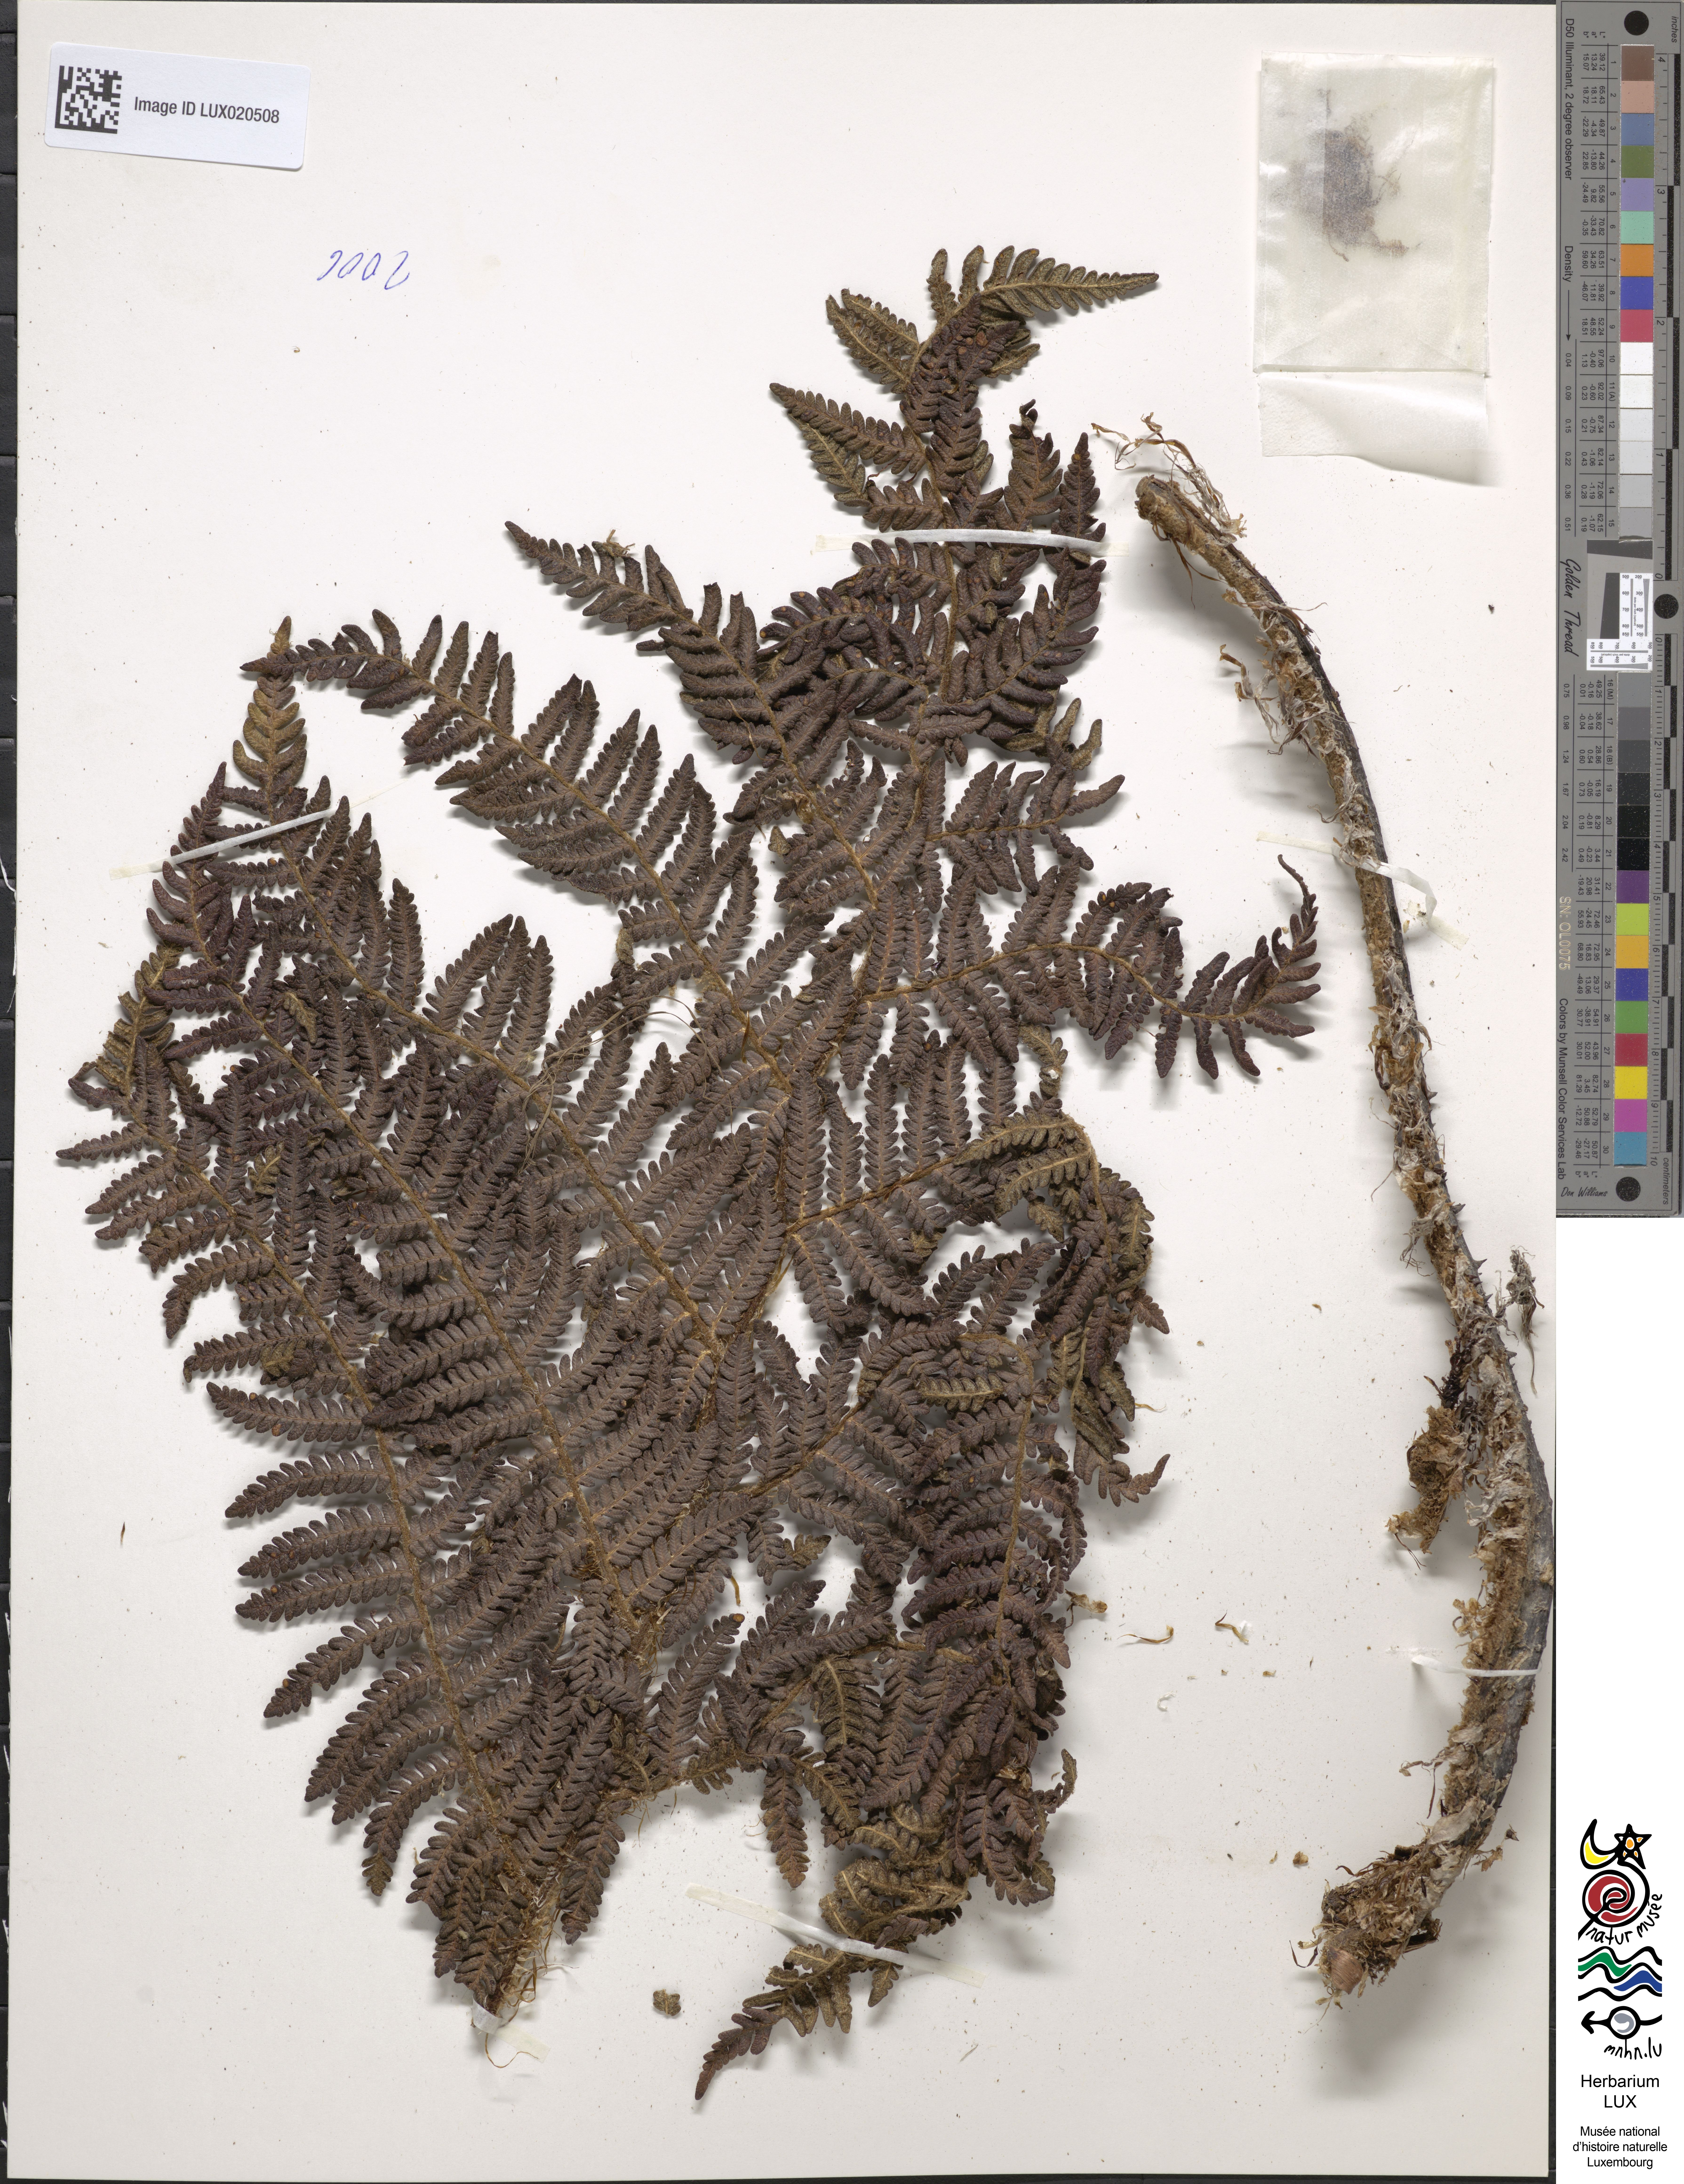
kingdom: Plantae
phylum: Tracheophyta
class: Polypodiopsida
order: Cyatheales
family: Cyatheaceae
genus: Sphaeropteris
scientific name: Sphaeropteris magna
